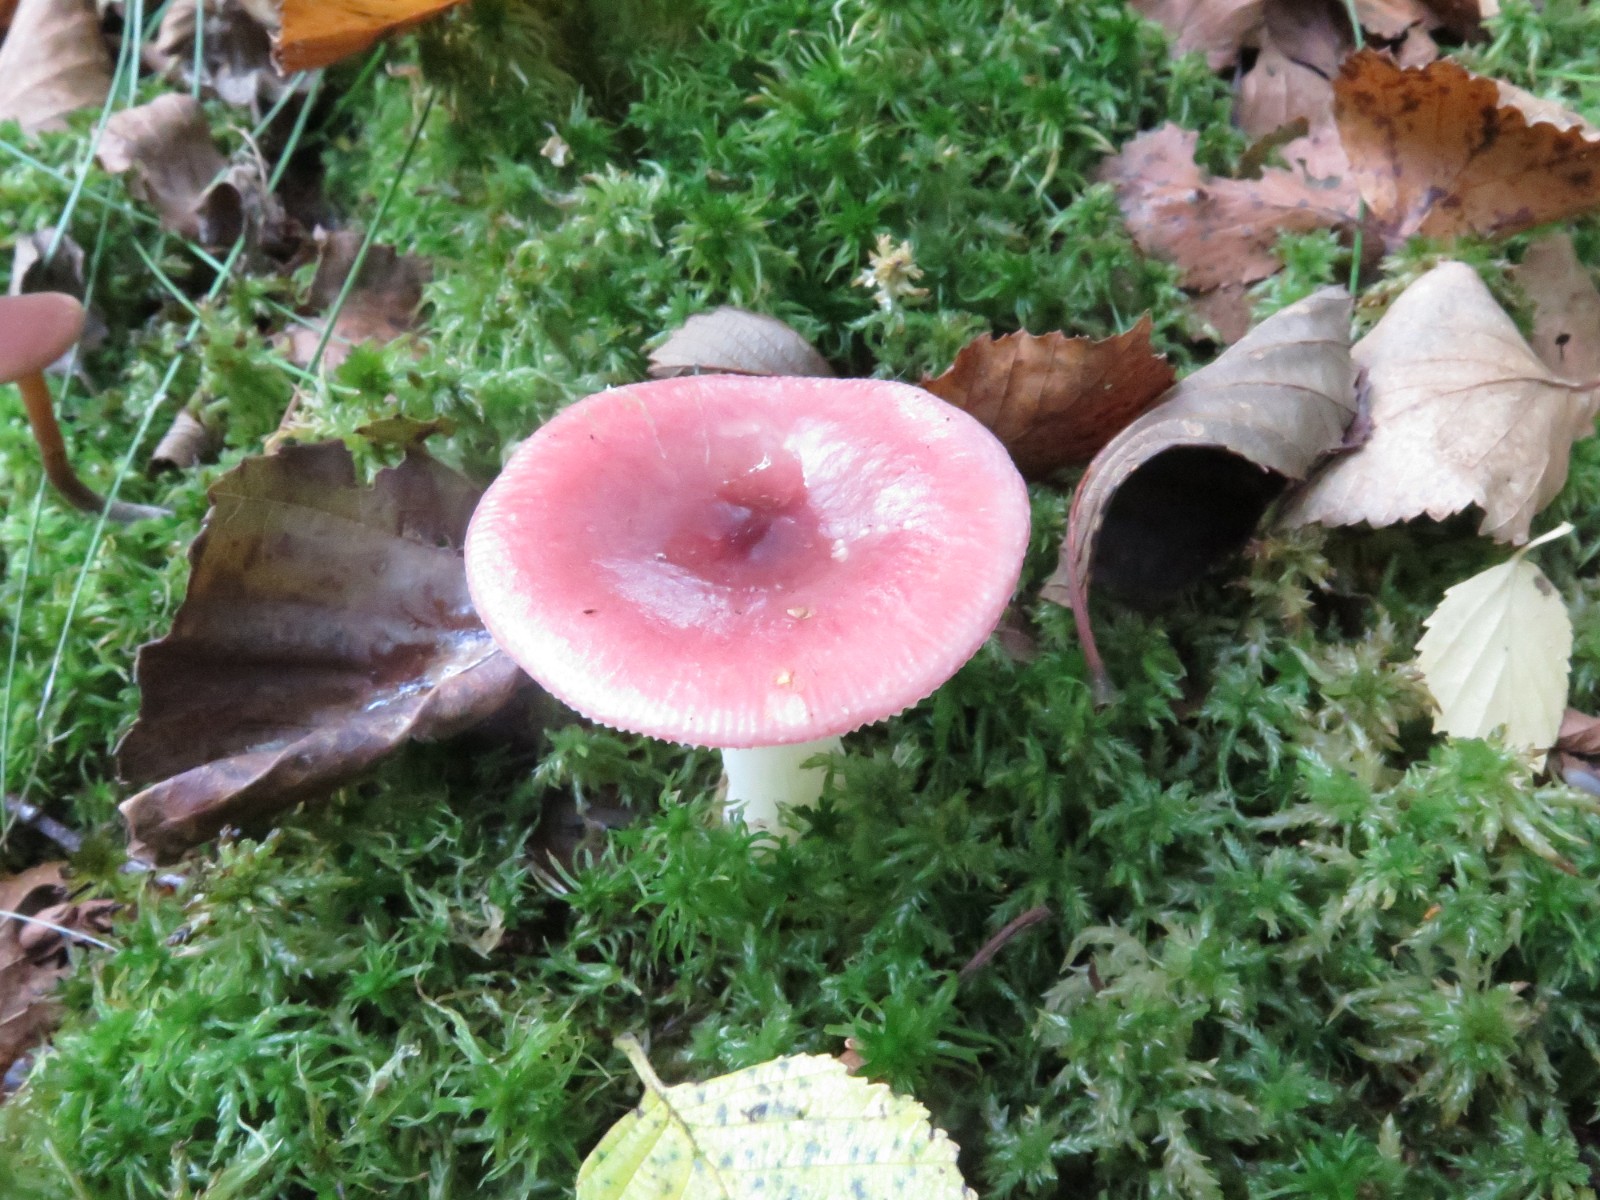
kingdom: Fungi
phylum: Basidiomycota
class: Agaricomycetes
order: Russulales
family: Russulaceae
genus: Russula
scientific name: Russula
